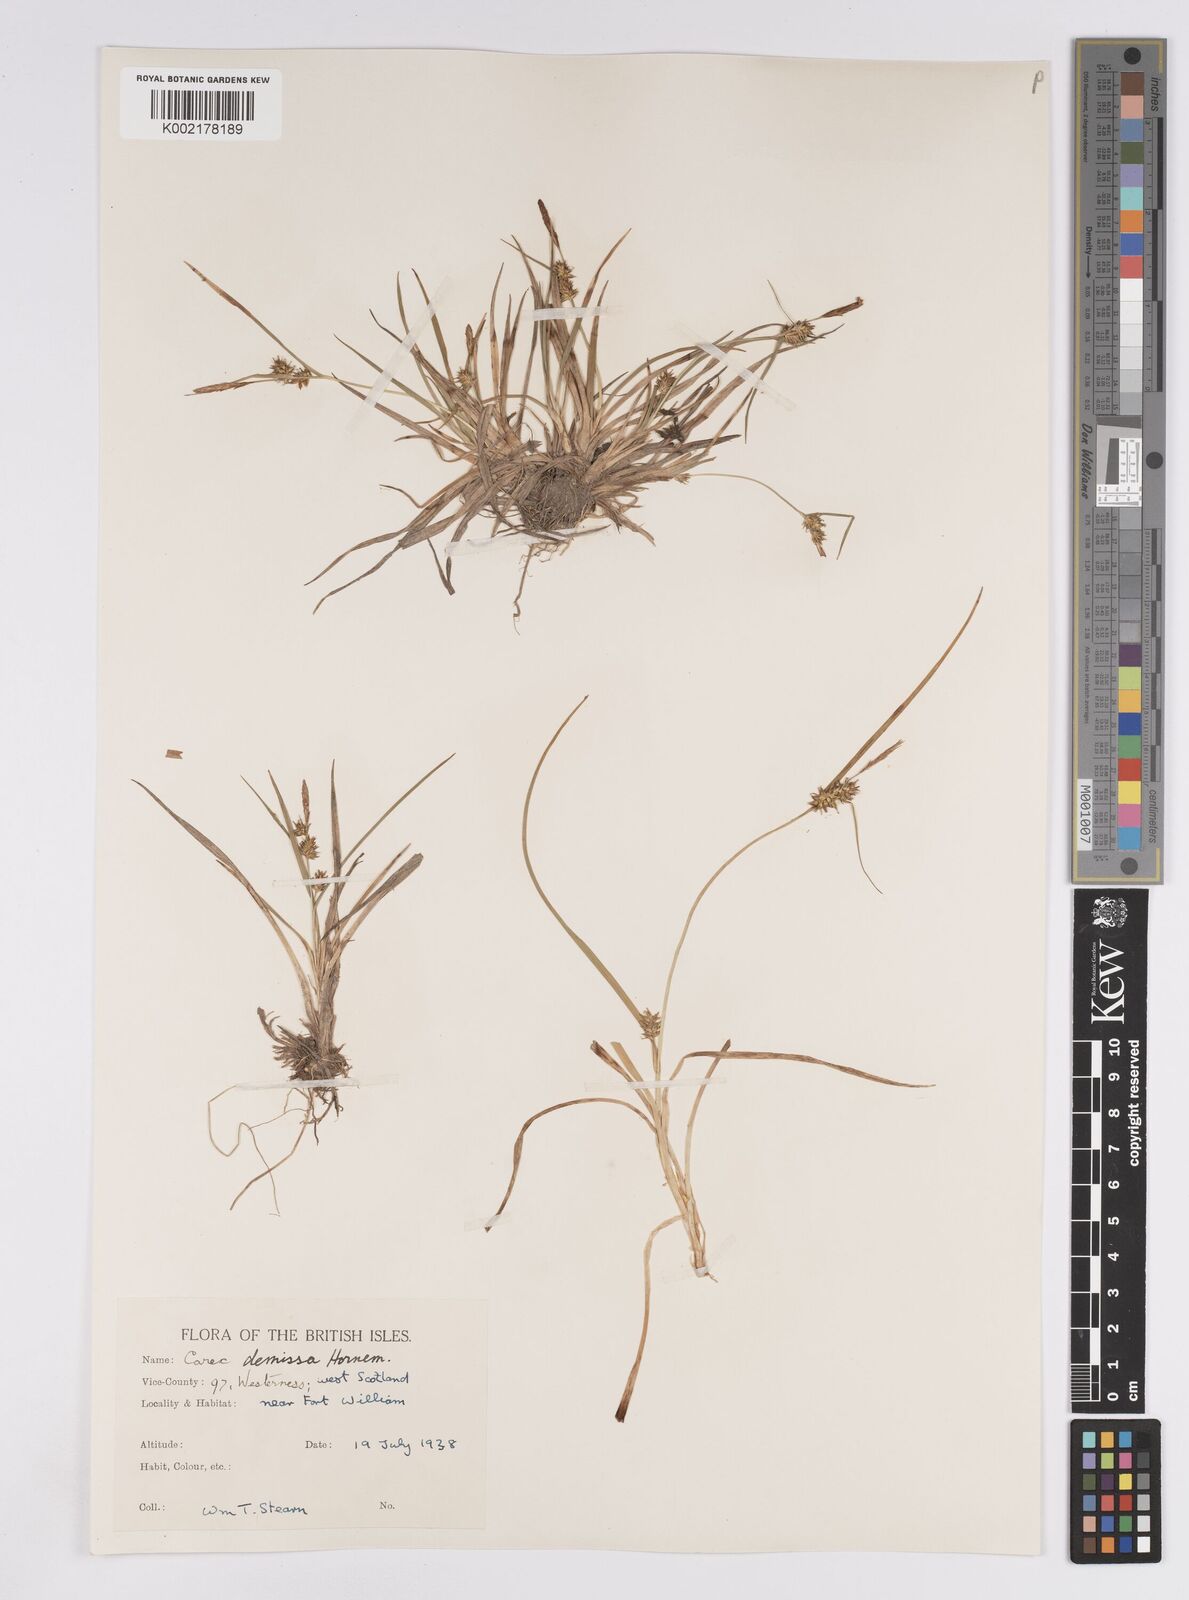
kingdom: Plantae
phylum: Tracheophyta
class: Liliopsida
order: Poales
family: Cyperaceae
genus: Carex
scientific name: Carex demissa
